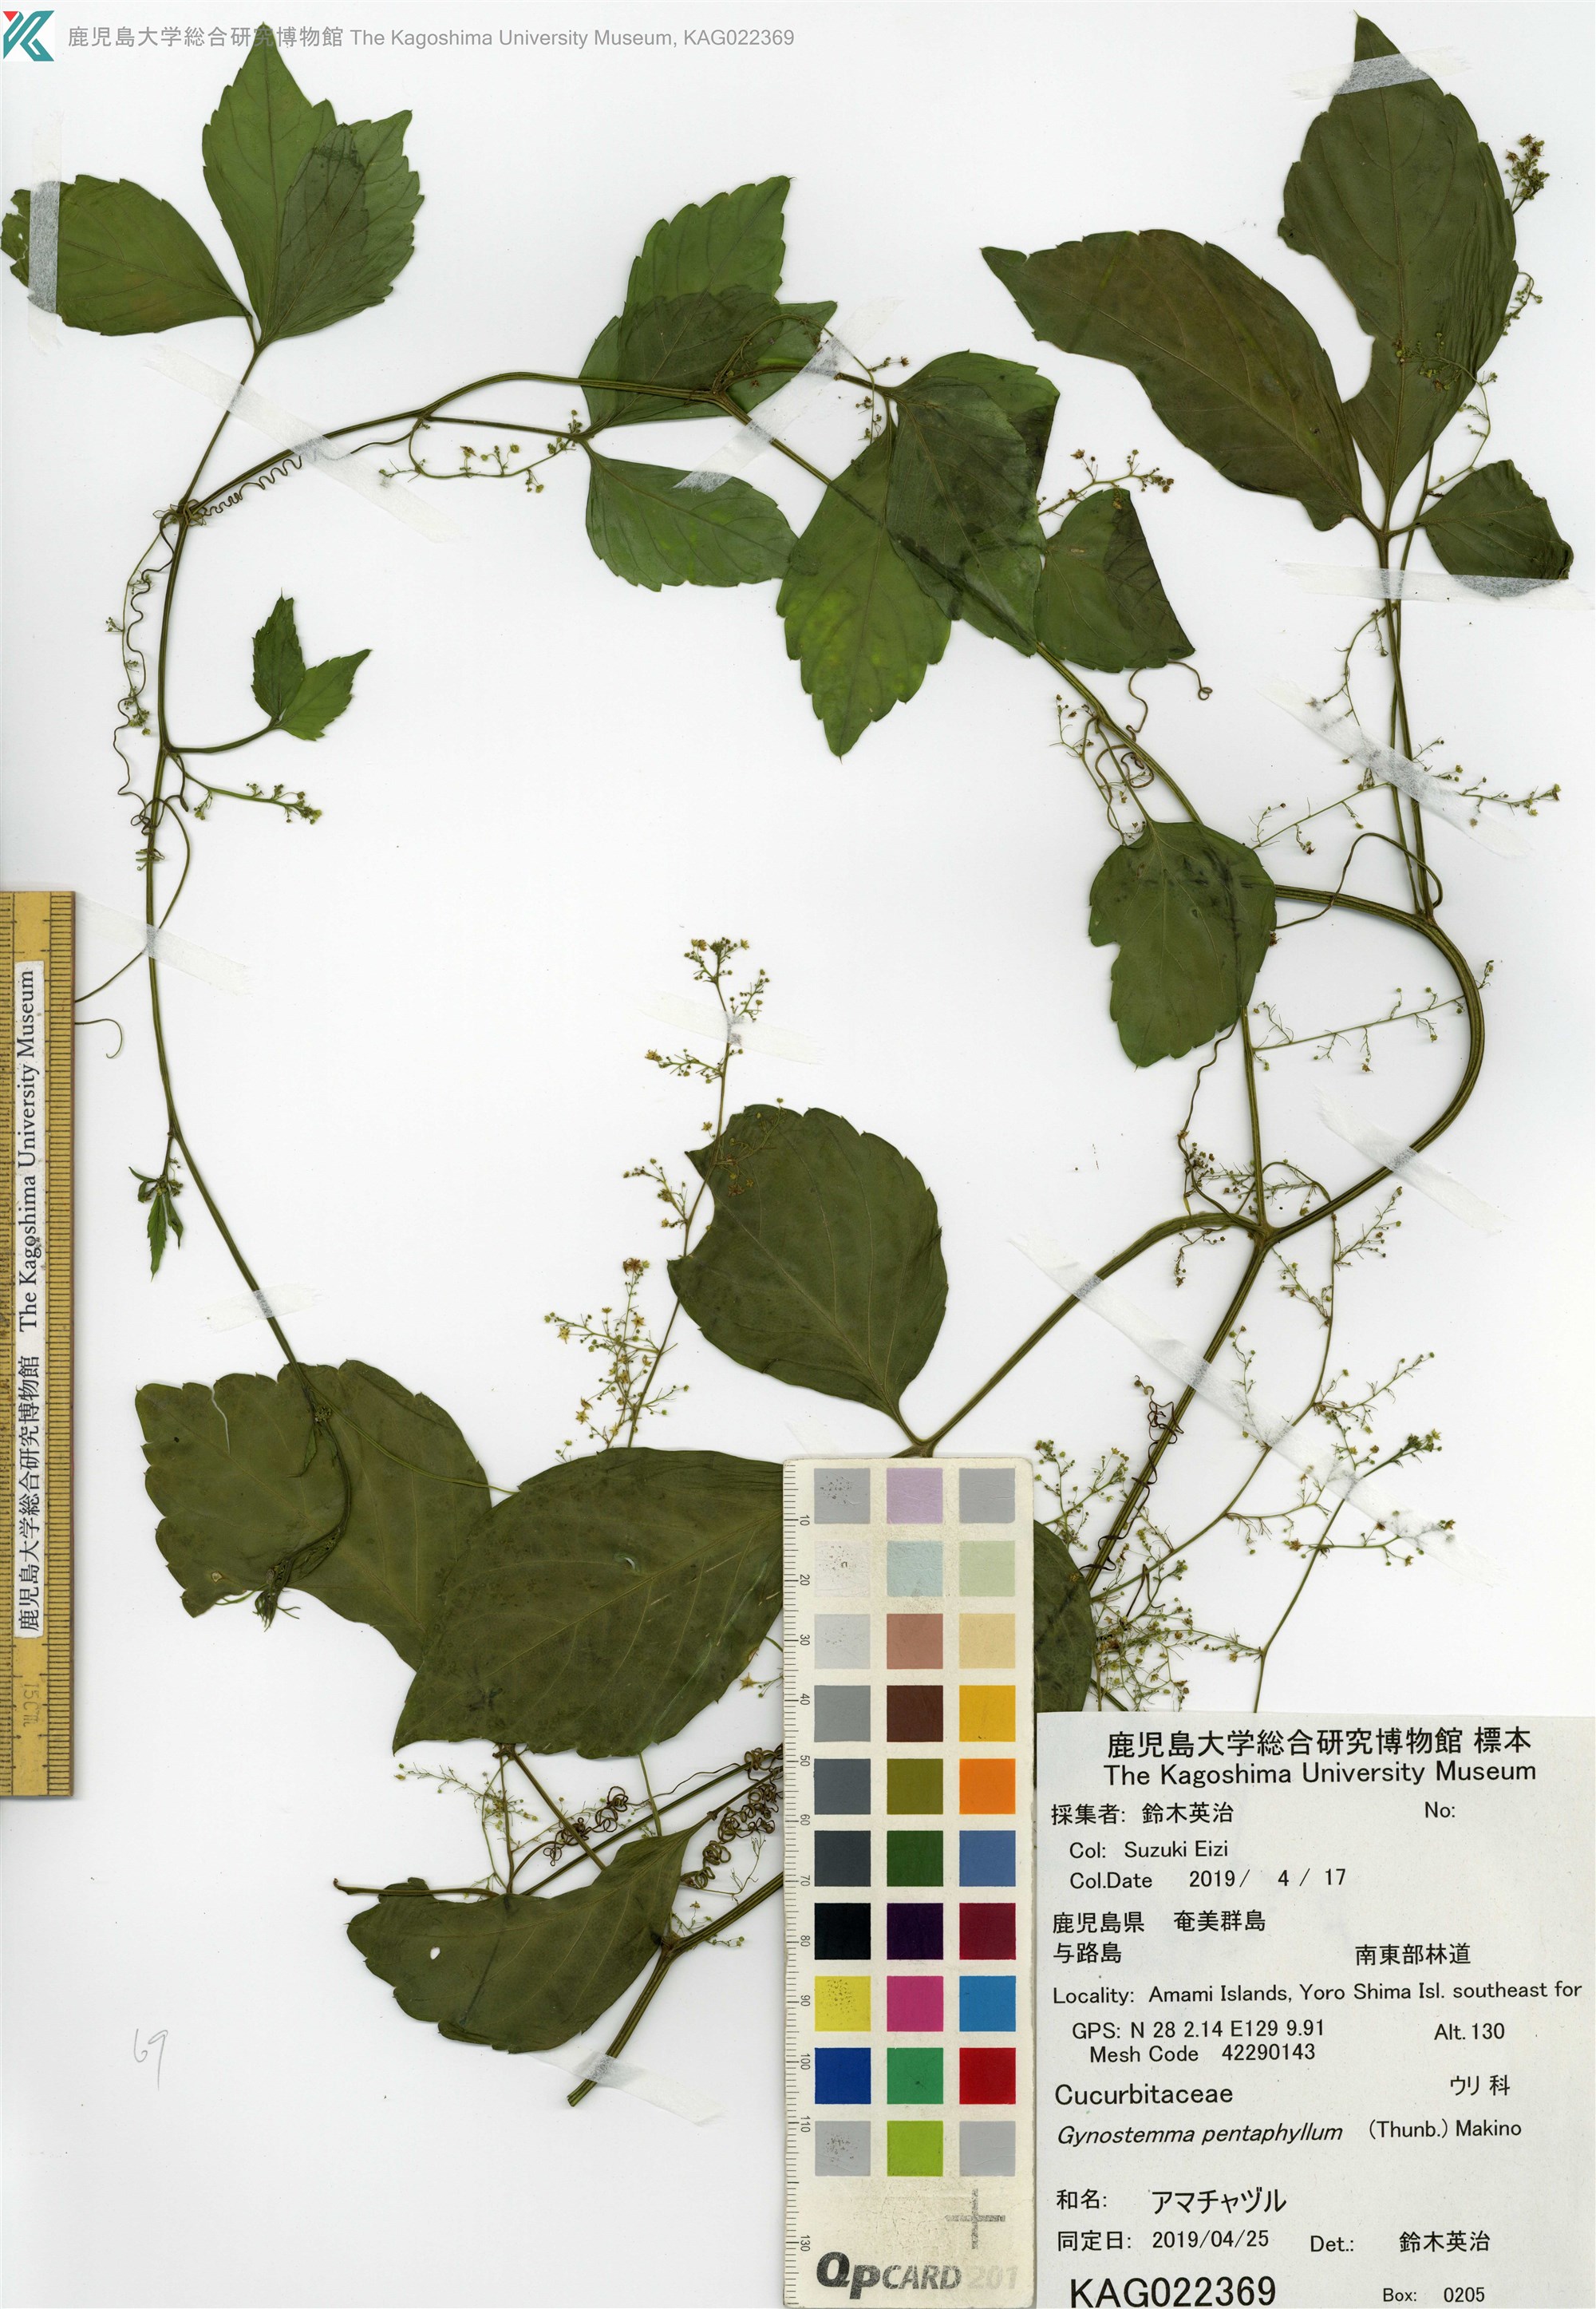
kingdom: Plantae
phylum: Tracheophyta
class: Magnoliopsida
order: Cucurbitales
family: Cucurbitaceae
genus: Gynostemma
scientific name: Gynostemma pentaphyllum
